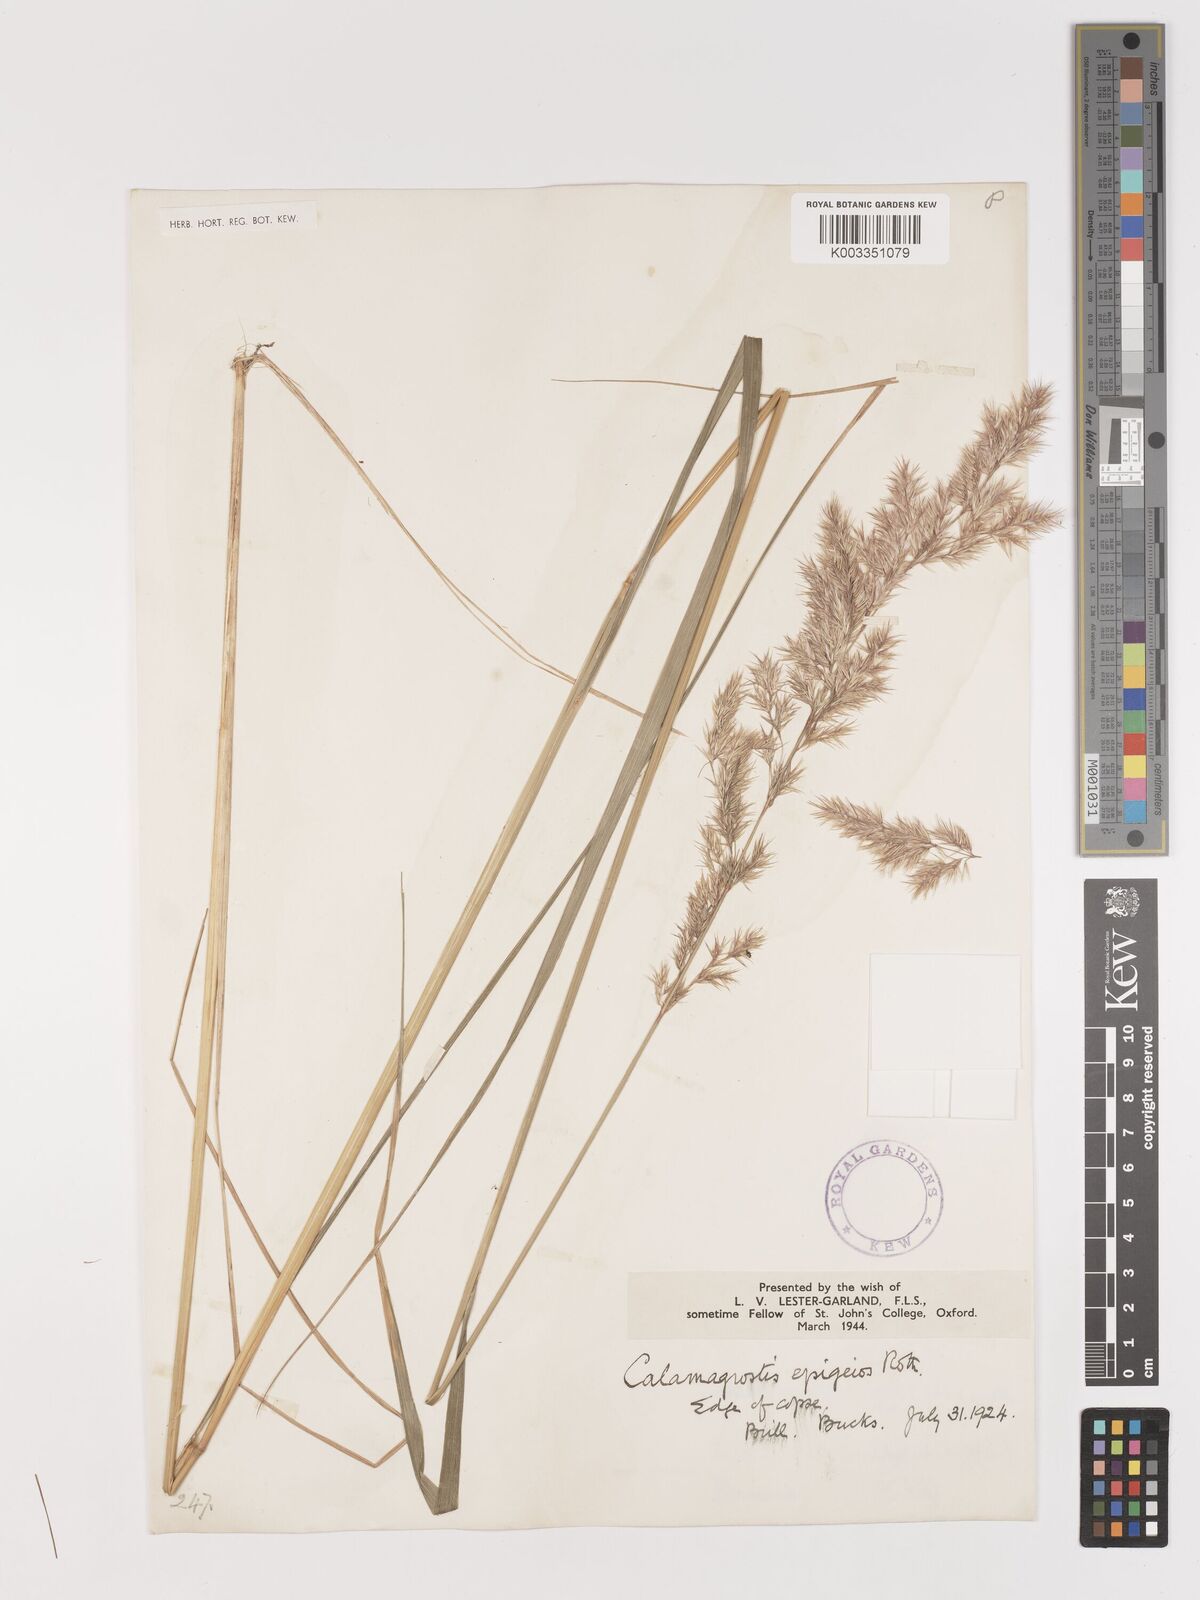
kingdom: Plantae
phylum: Tracheophyta
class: Liliopsida
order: Poales
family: Poaceae
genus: Calamagrostis
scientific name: Calamagrostis epigejos
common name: Wood small-reed
